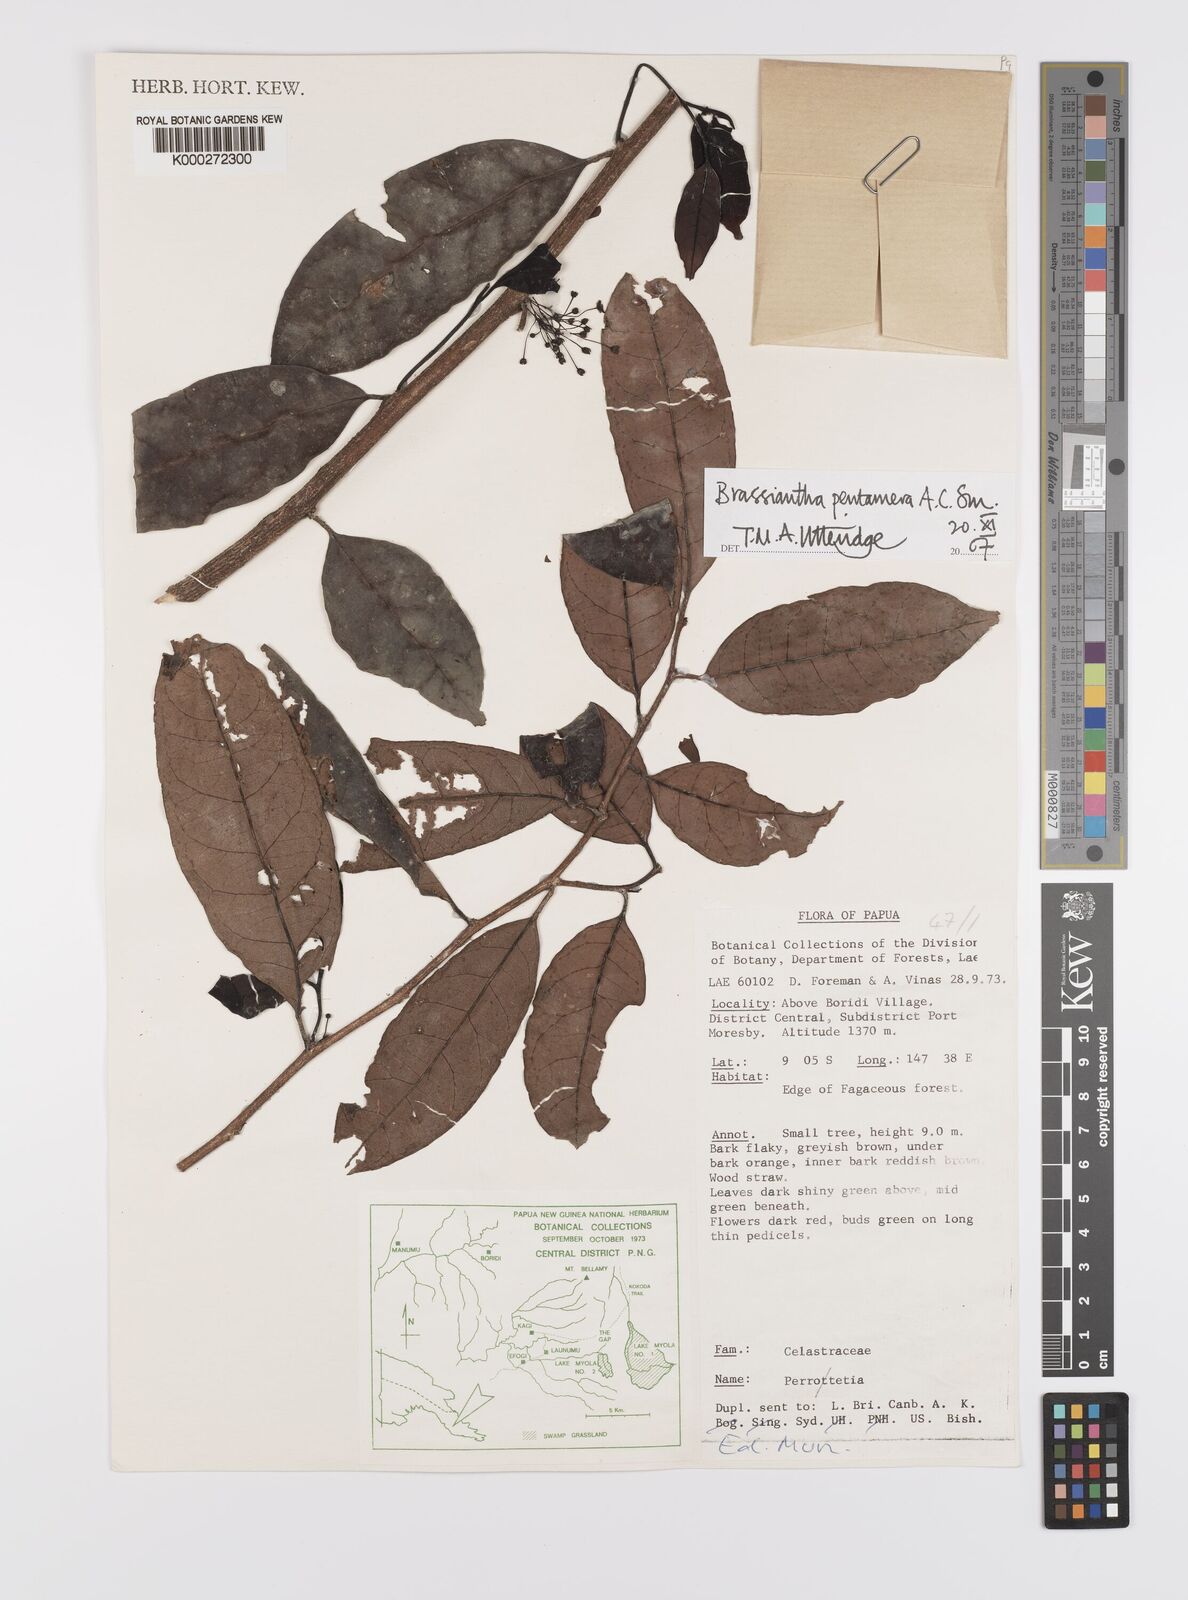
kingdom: Plantae
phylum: Tracheophyta
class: Magnoliopsida
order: Celastrales
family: Celastraceae
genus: Brassiantha
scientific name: Brassiantha pentamera
